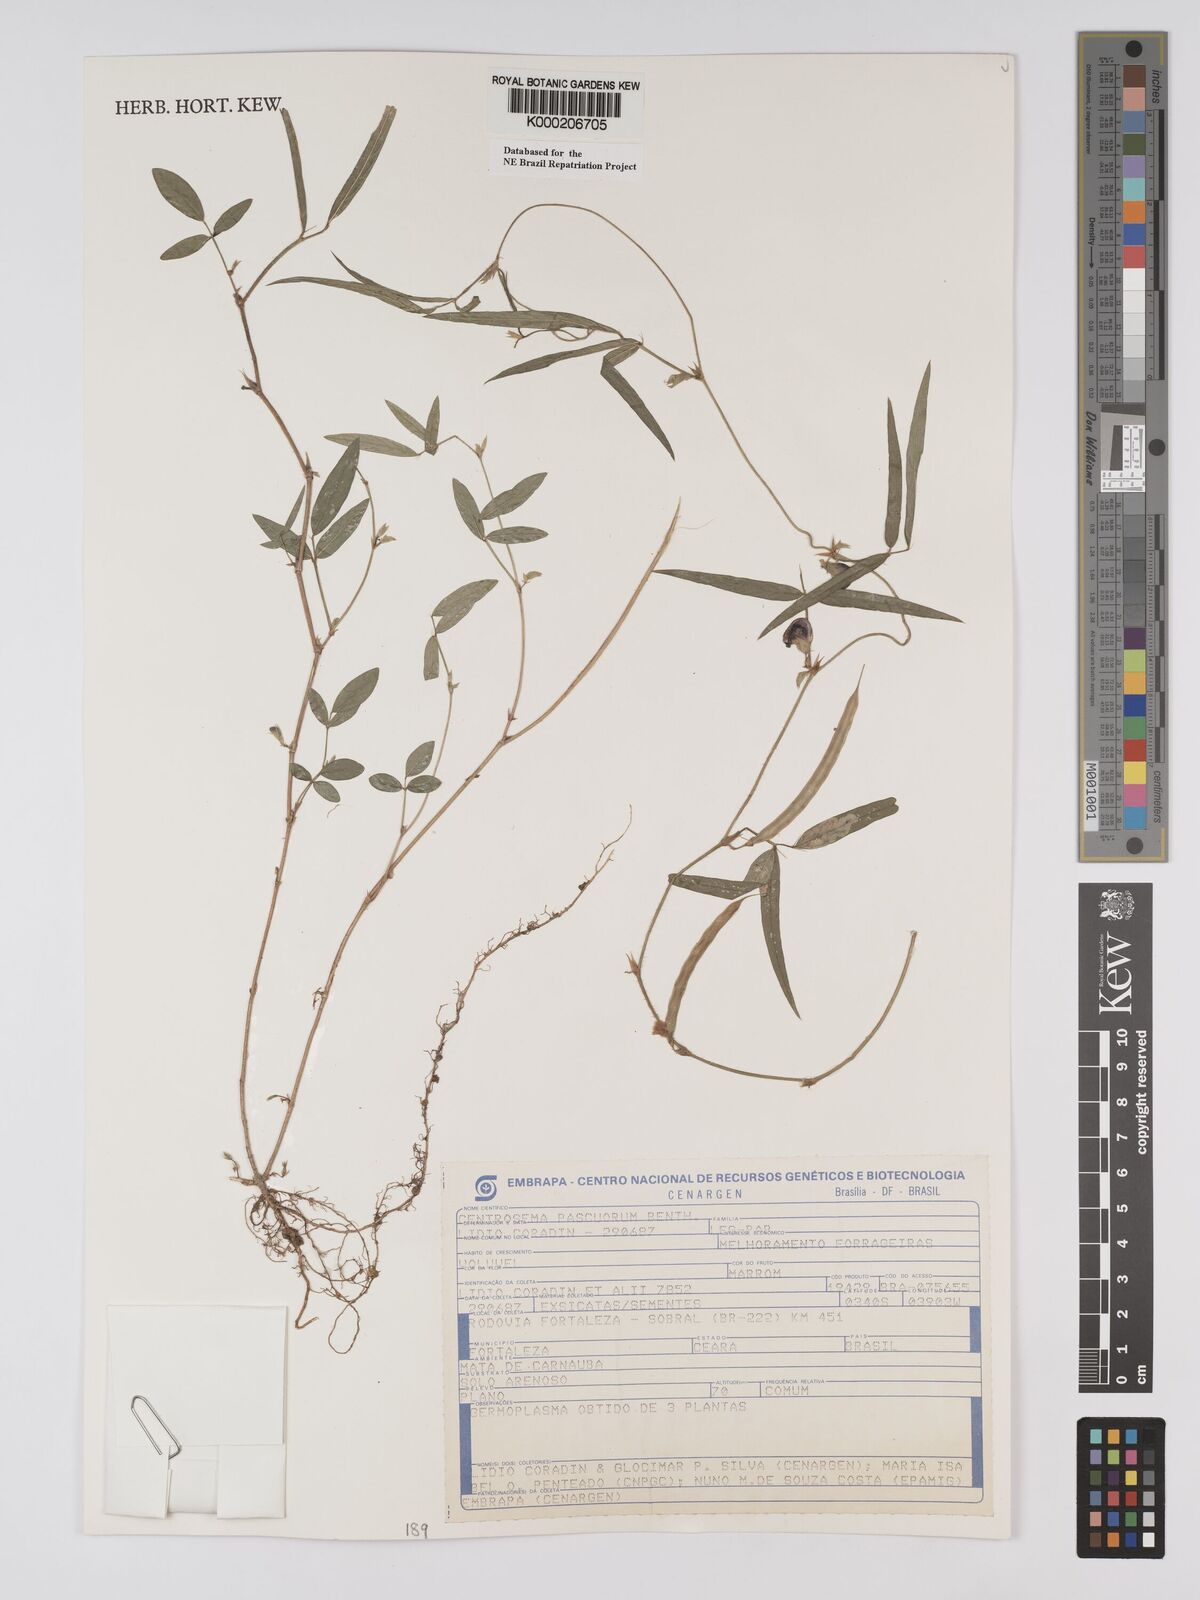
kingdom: Plantae
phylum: Tracheophyta
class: Magnoliopsida
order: Fabales
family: Fabaceae
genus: Centrosema
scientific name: Centrosema pascuorum
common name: Centurion
